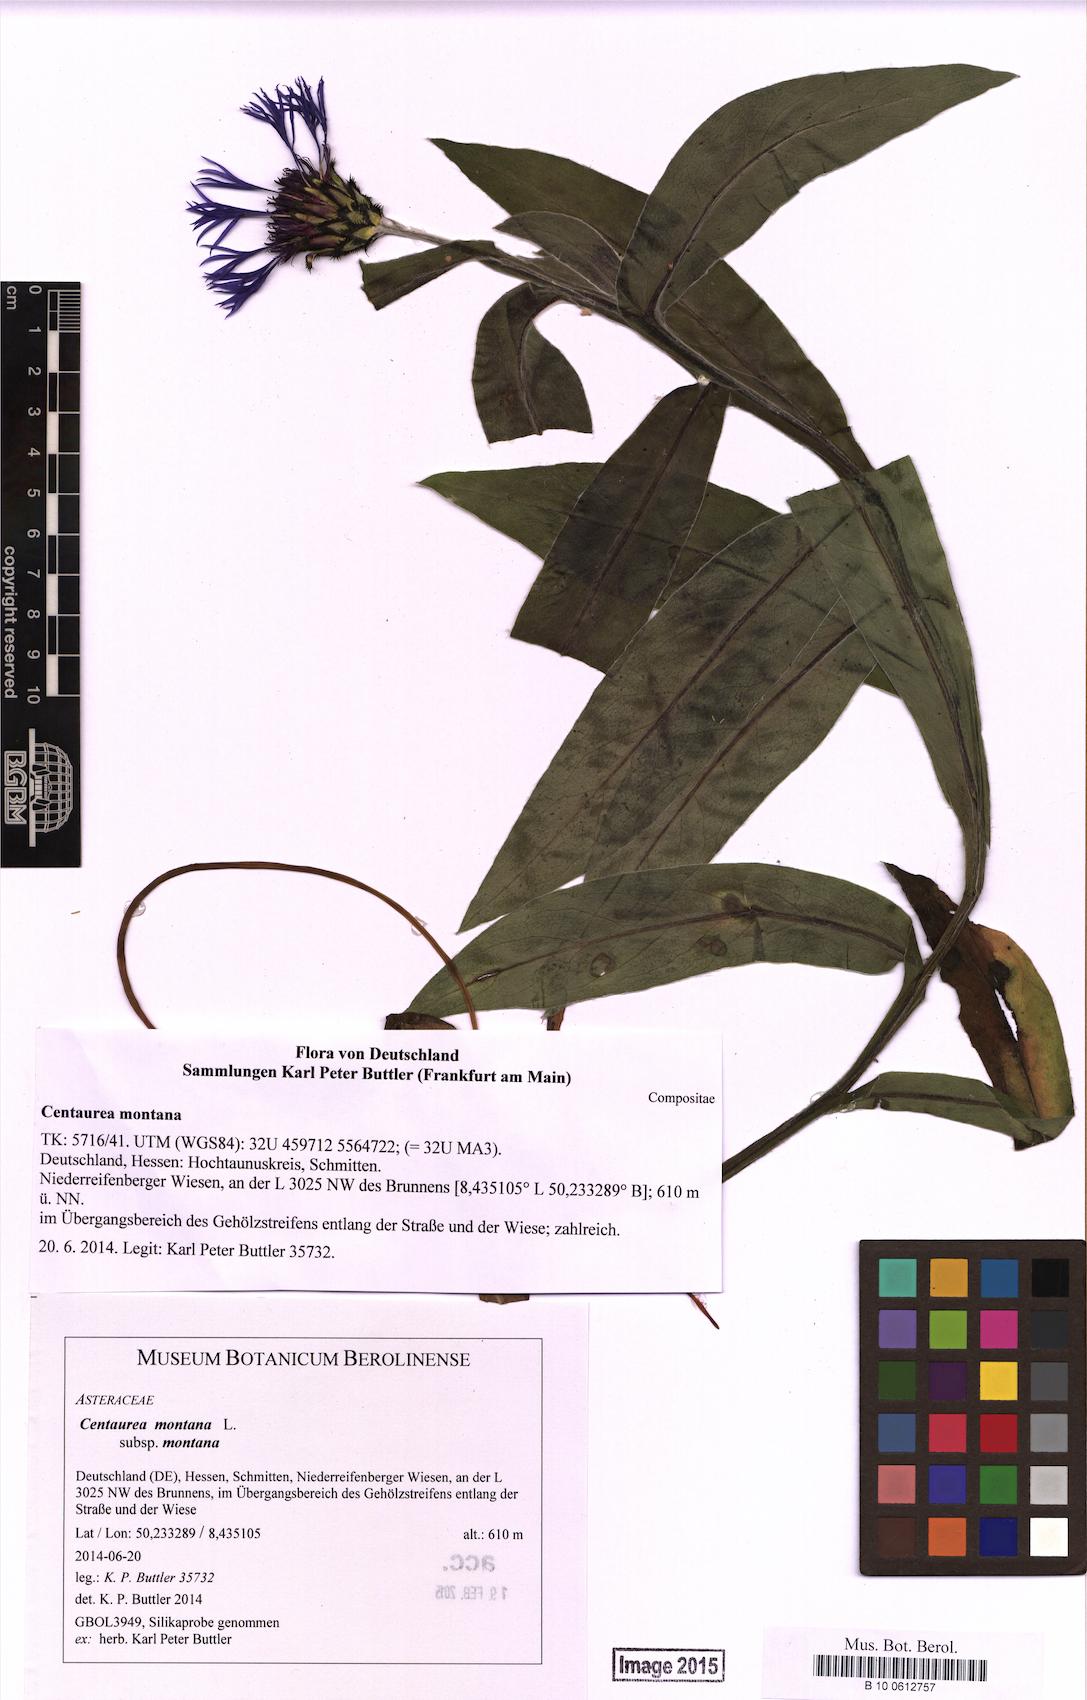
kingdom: Plantae
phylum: Tracheophyta
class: Magnoliopsida
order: Asterales
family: Asteraceae
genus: Centaurea
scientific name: Centaurea montana
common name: Perennial cornflower
